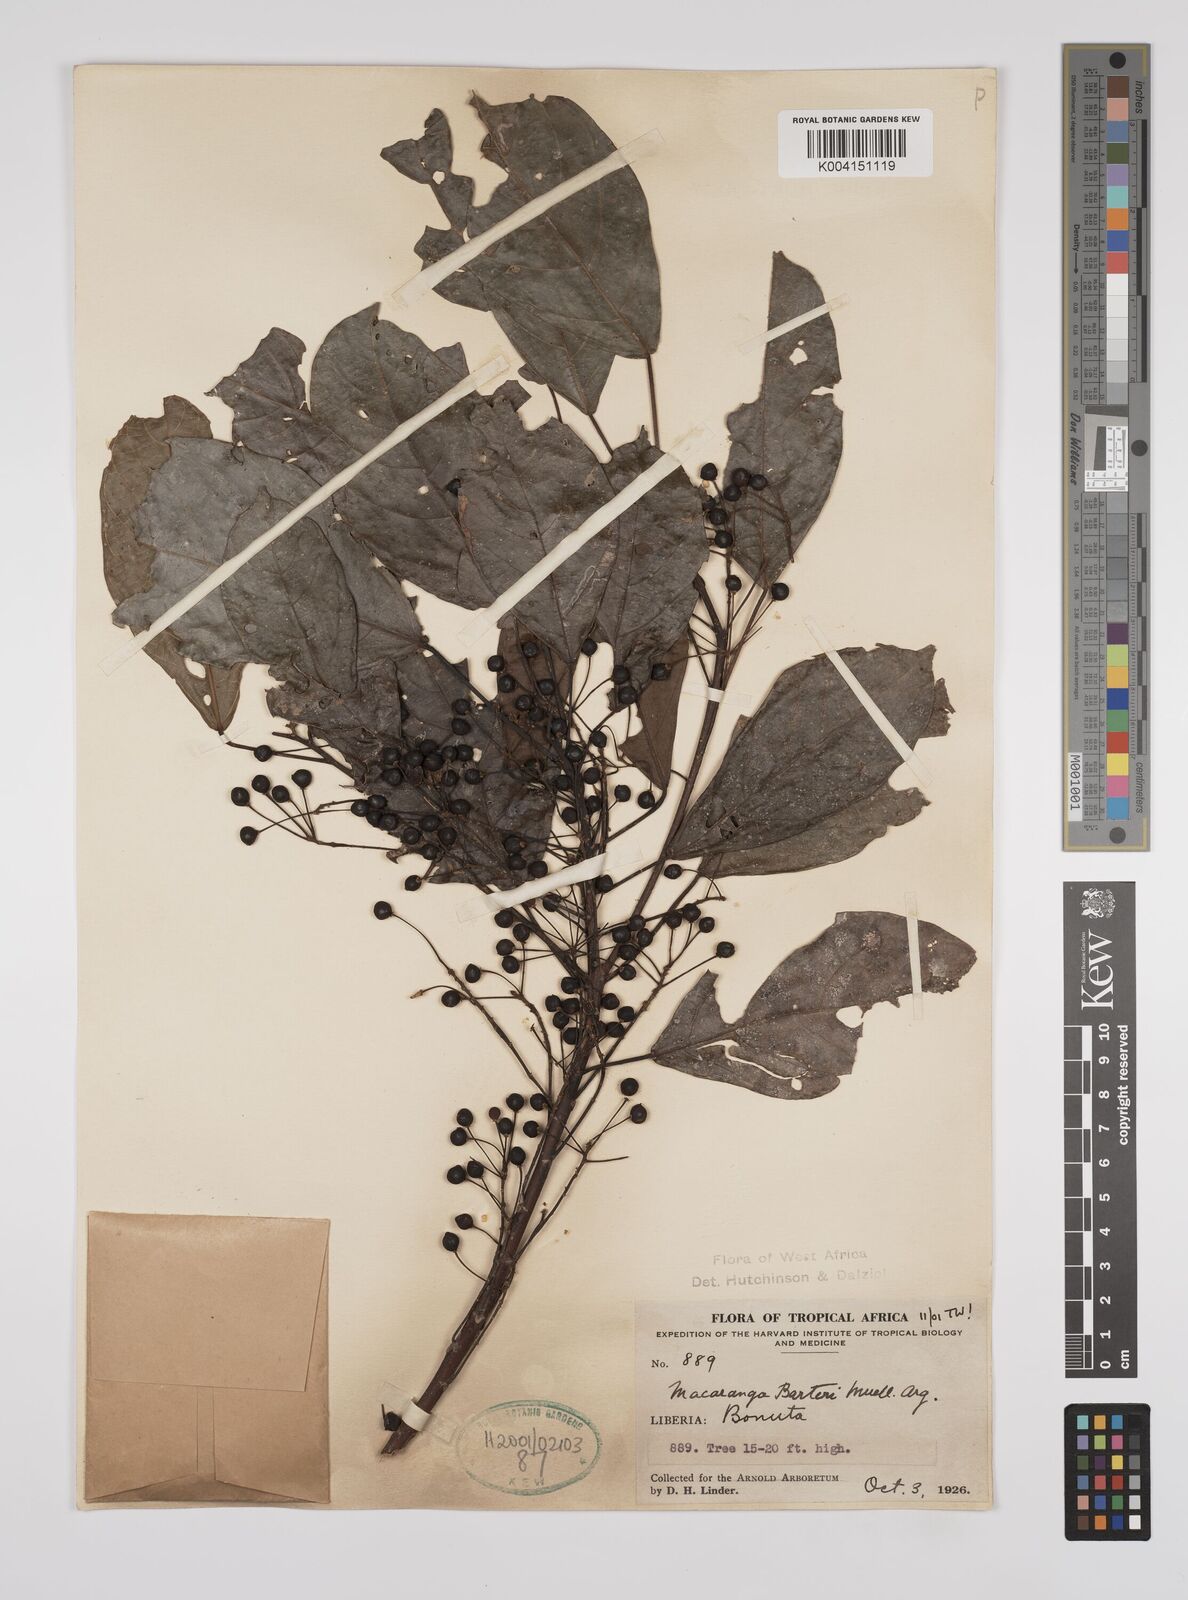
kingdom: Plantae
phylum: Tracheophyta
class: Magnoliopsida
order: Malpighiales
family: Euphorbiaceae
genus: Macaranga
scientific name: Macaranga barteri
